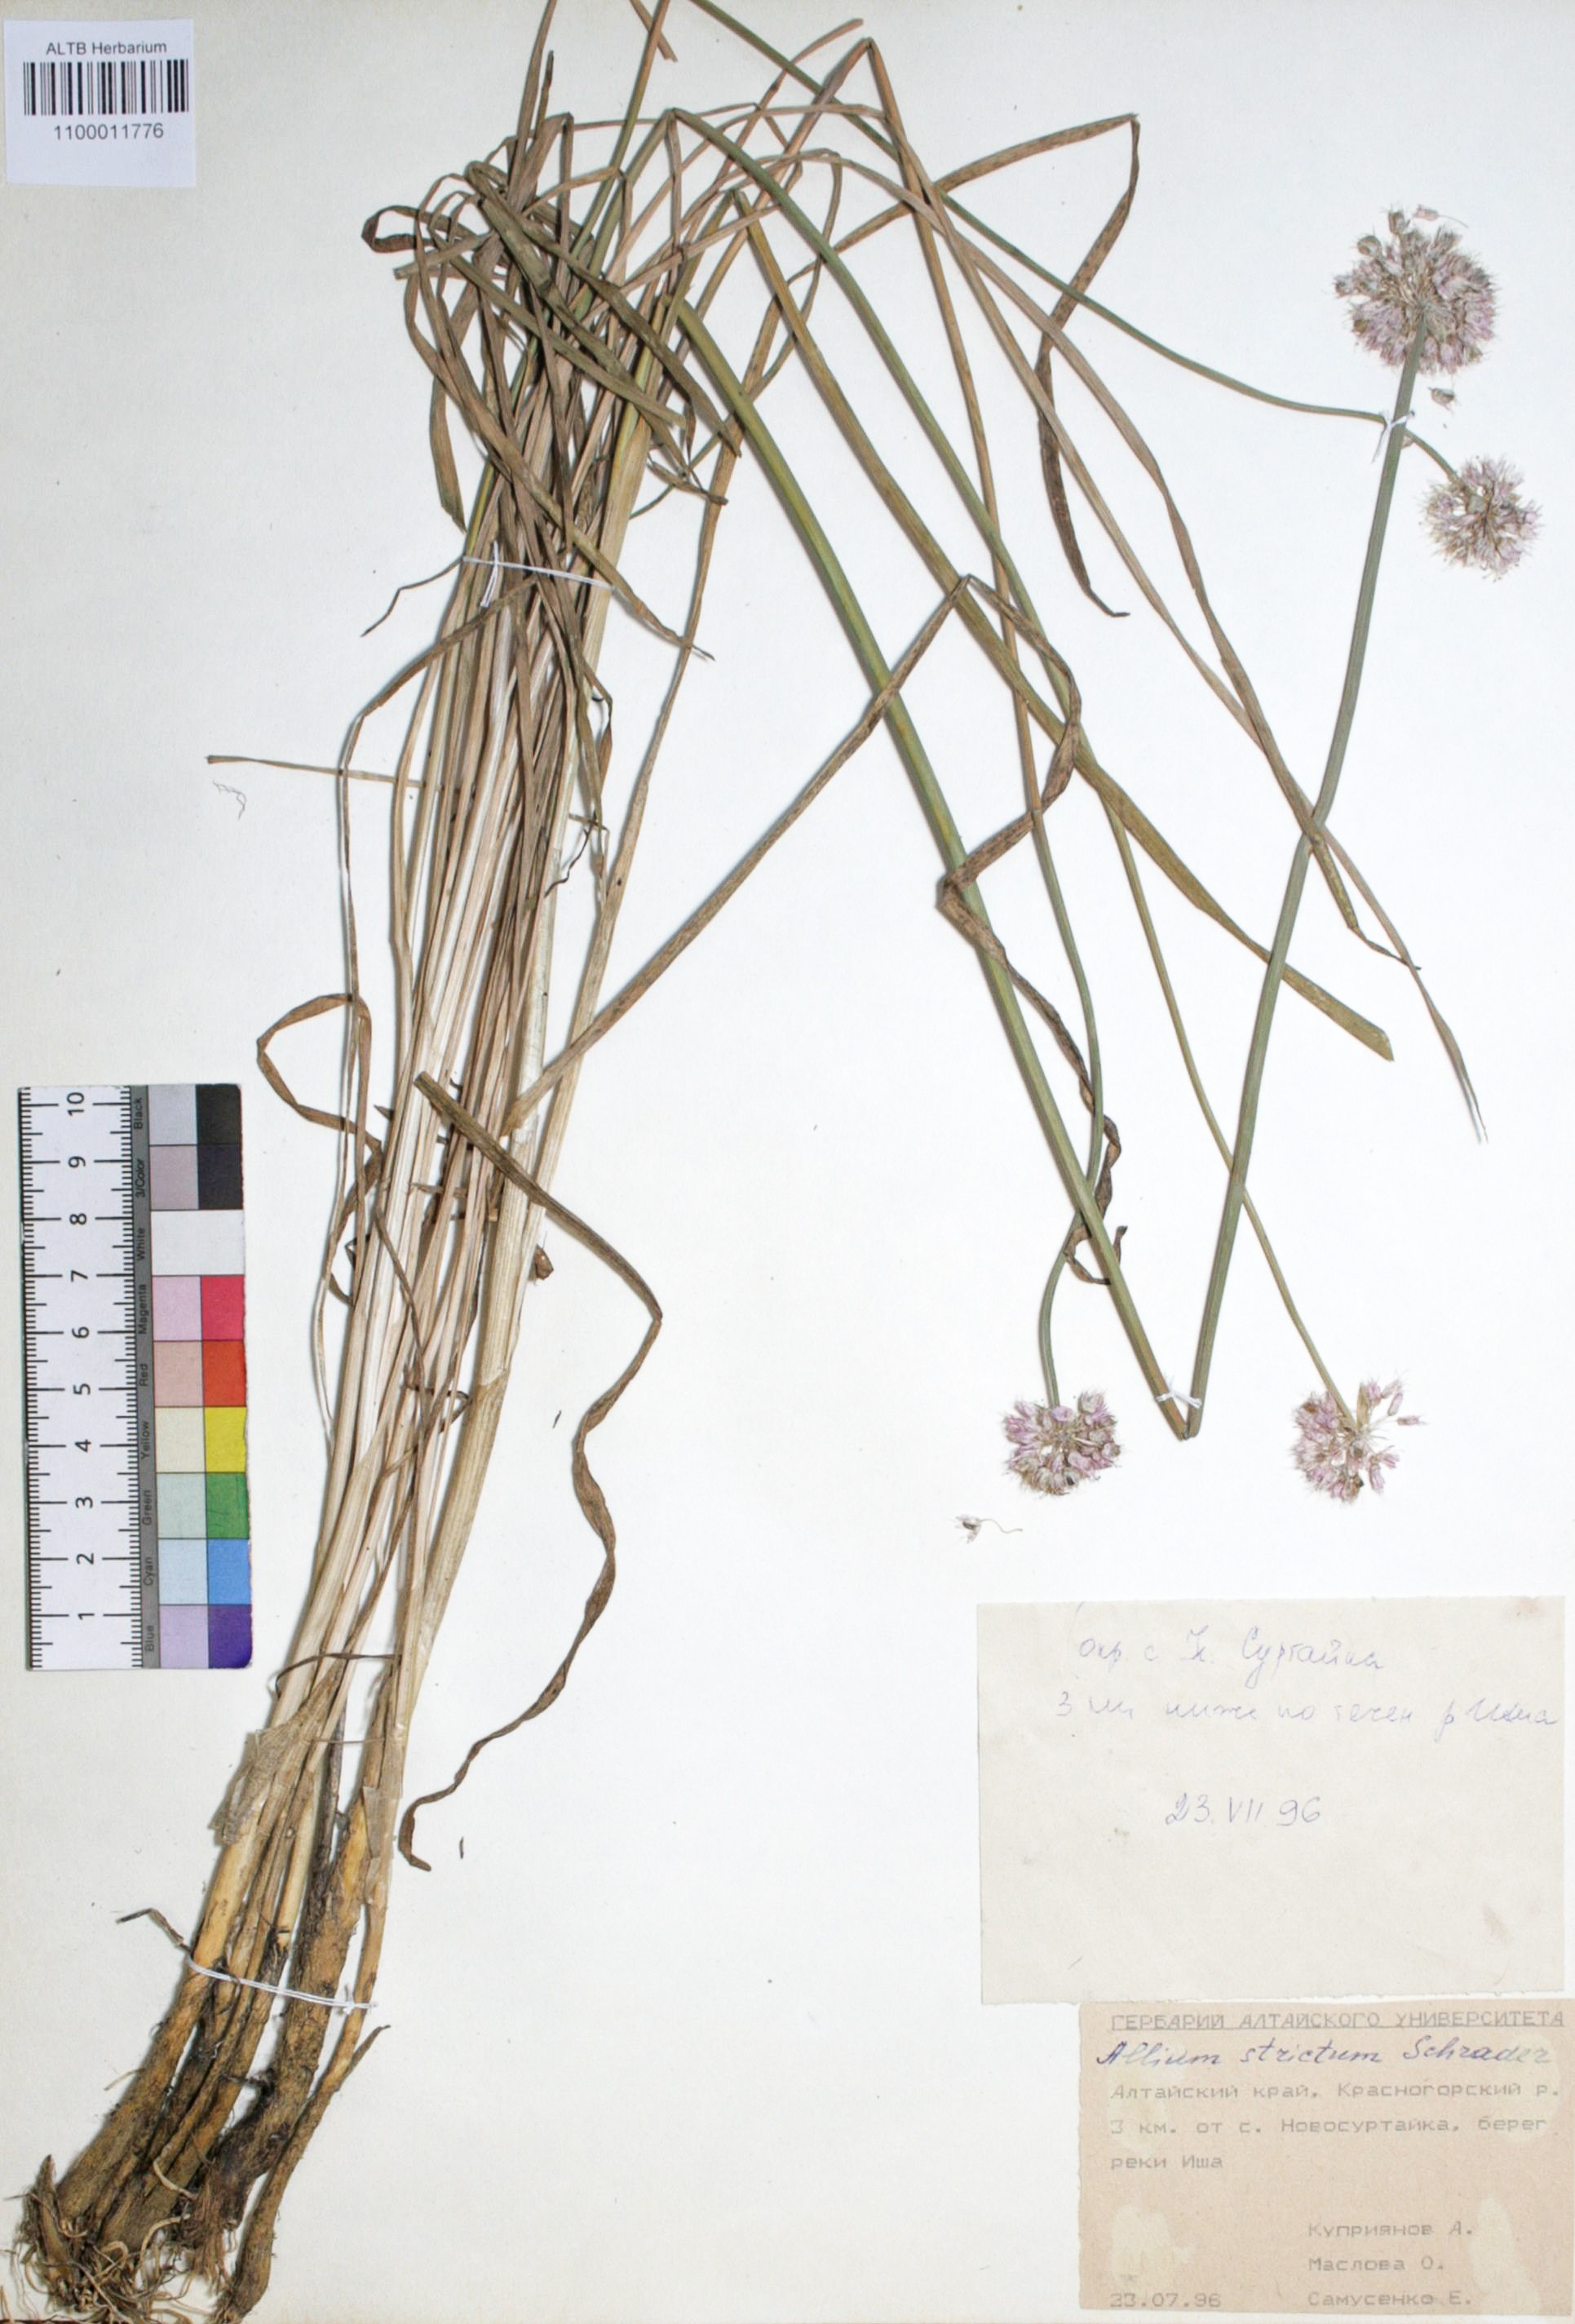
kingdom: Plantae
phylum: Tracheophyta
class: Liliopsida
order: Asparagales
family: Amaryllidaceae
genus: Allium
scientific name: Allium strictum
